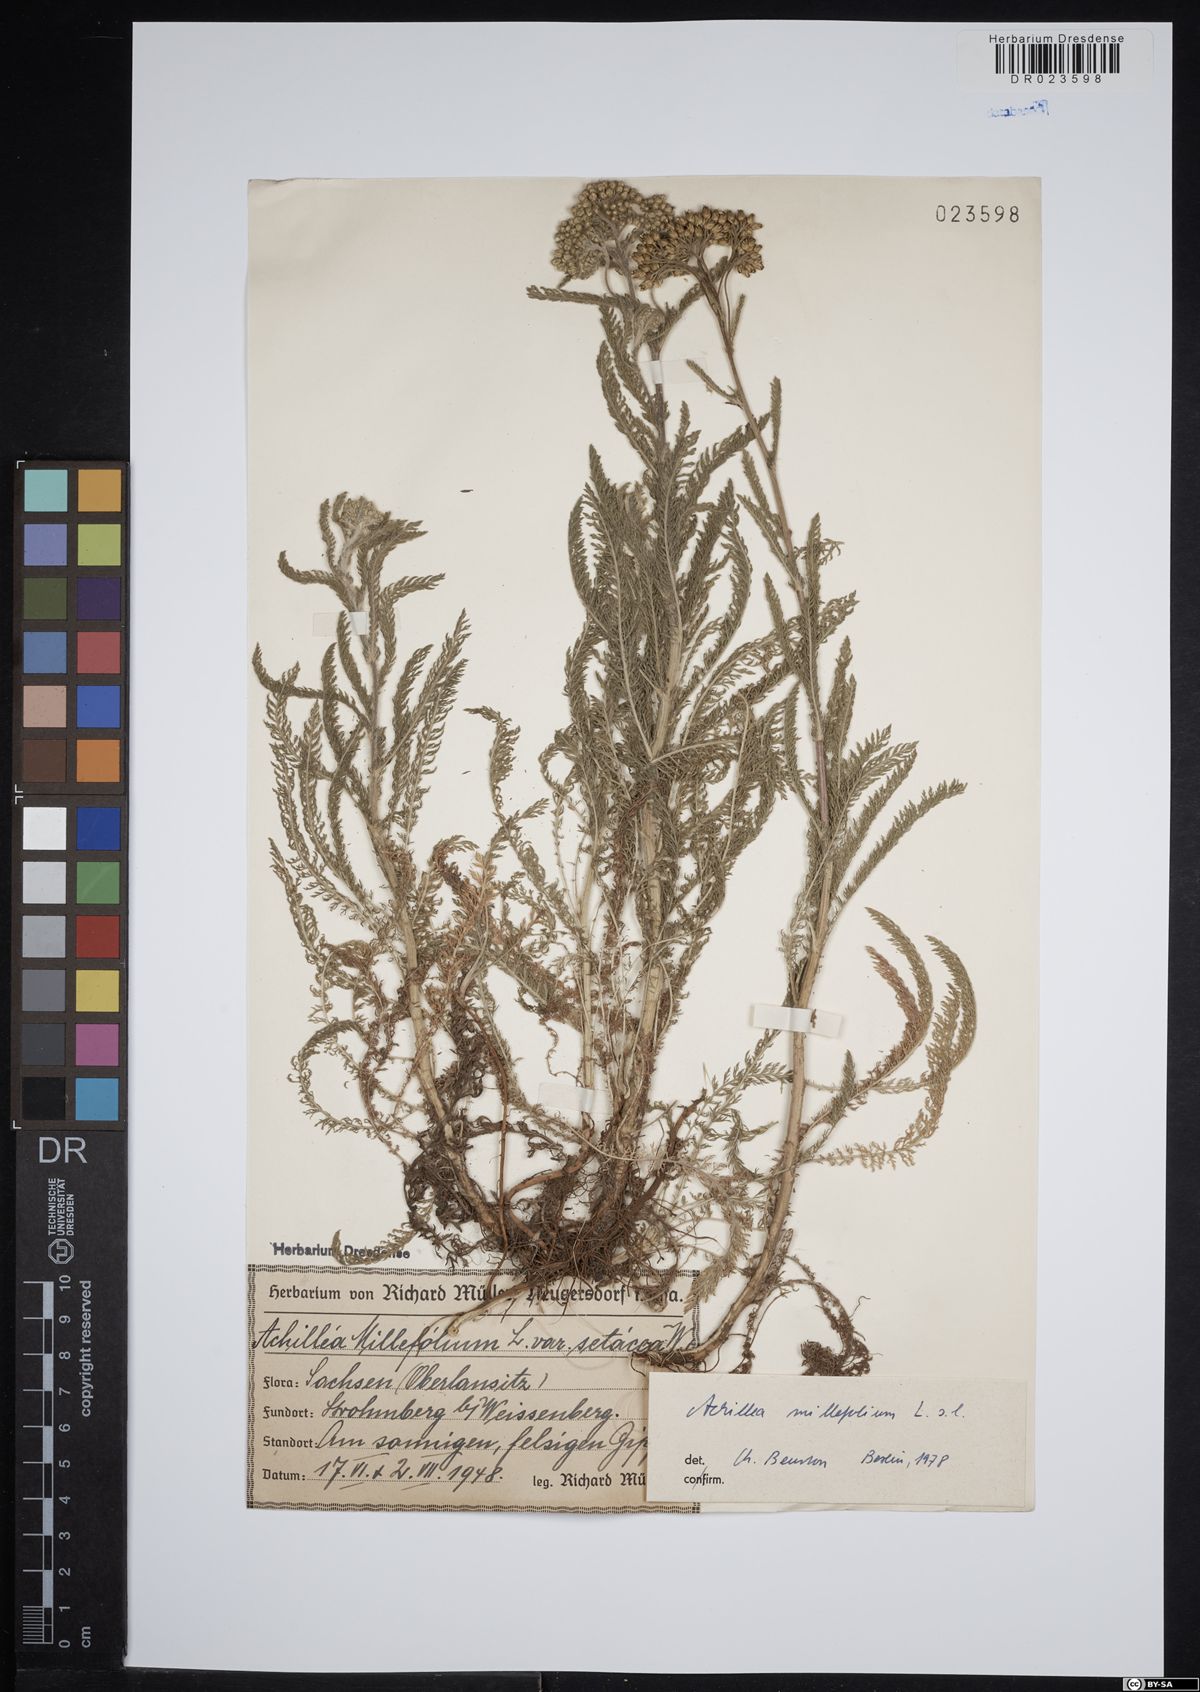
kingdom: Plantae
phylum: Tracheophyta
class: Magnoliopsida
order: Asterales
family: Asteraceae
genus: Achillea
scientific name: Achillea millefolium
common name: Yarrow
